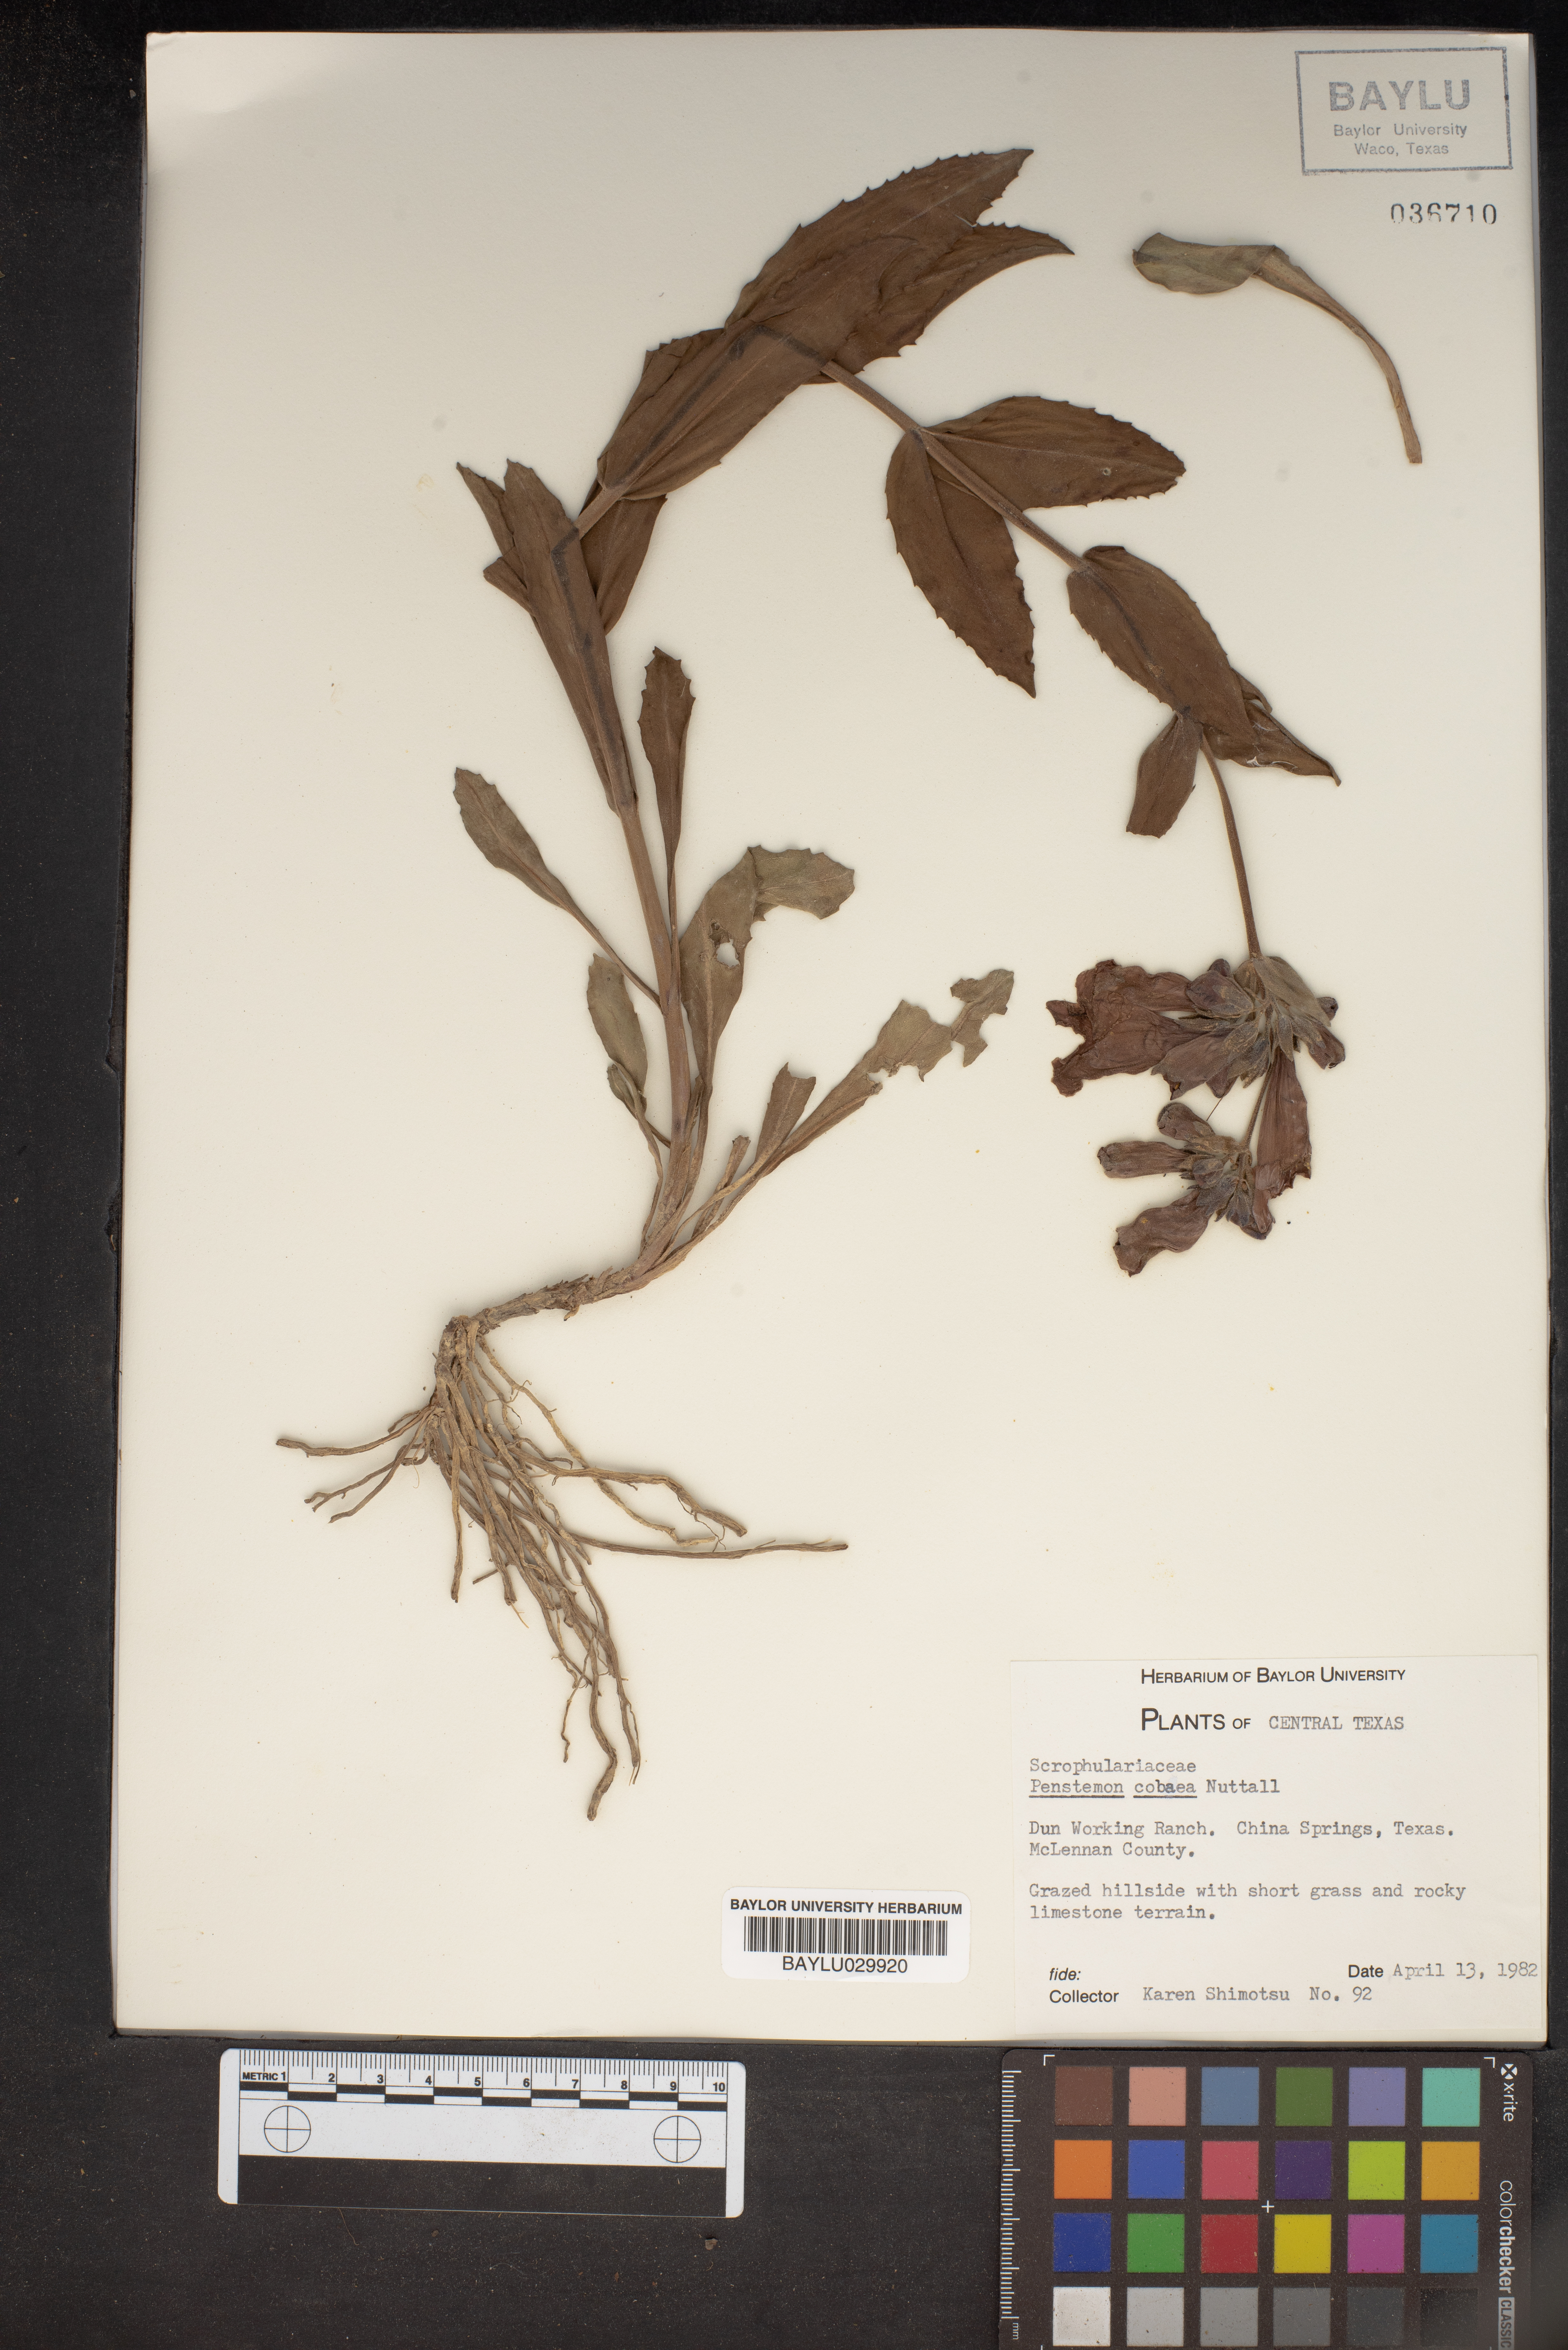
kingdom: Plantae
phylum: Tracheophyta
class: Magnoliopsida
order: Lamiales
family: Plantaginaceae
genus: Penstemon
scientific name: Penstemon cobaea
